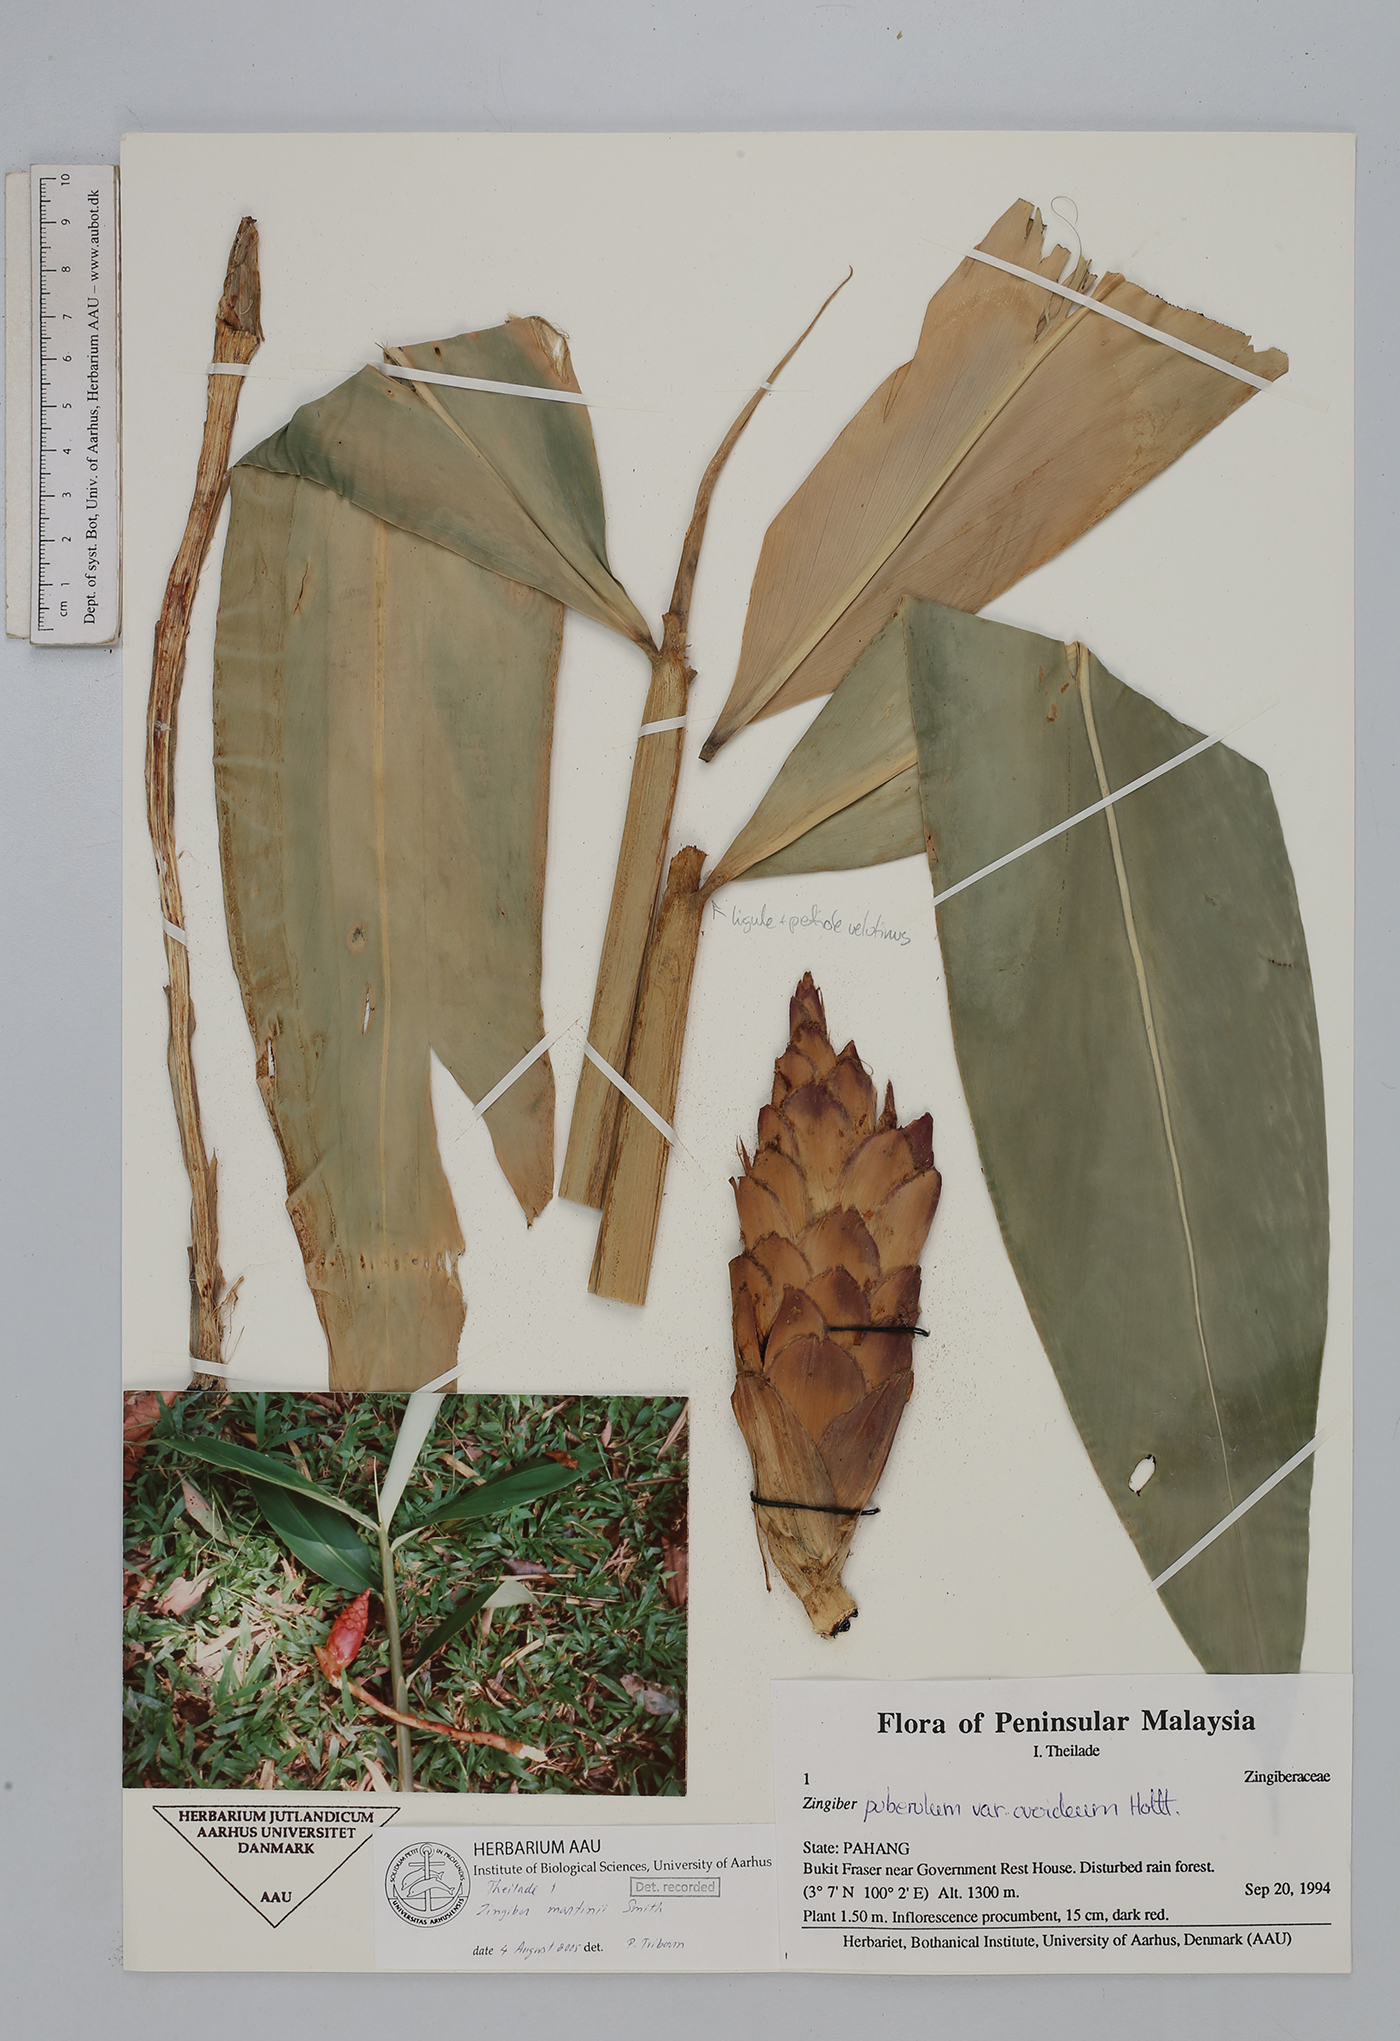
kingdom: Plantae
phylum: Tracheophyta
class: Liliopsida
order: Zingiberales
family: Zingiberaceae
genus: Zingiber
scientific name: Zingiber martini
